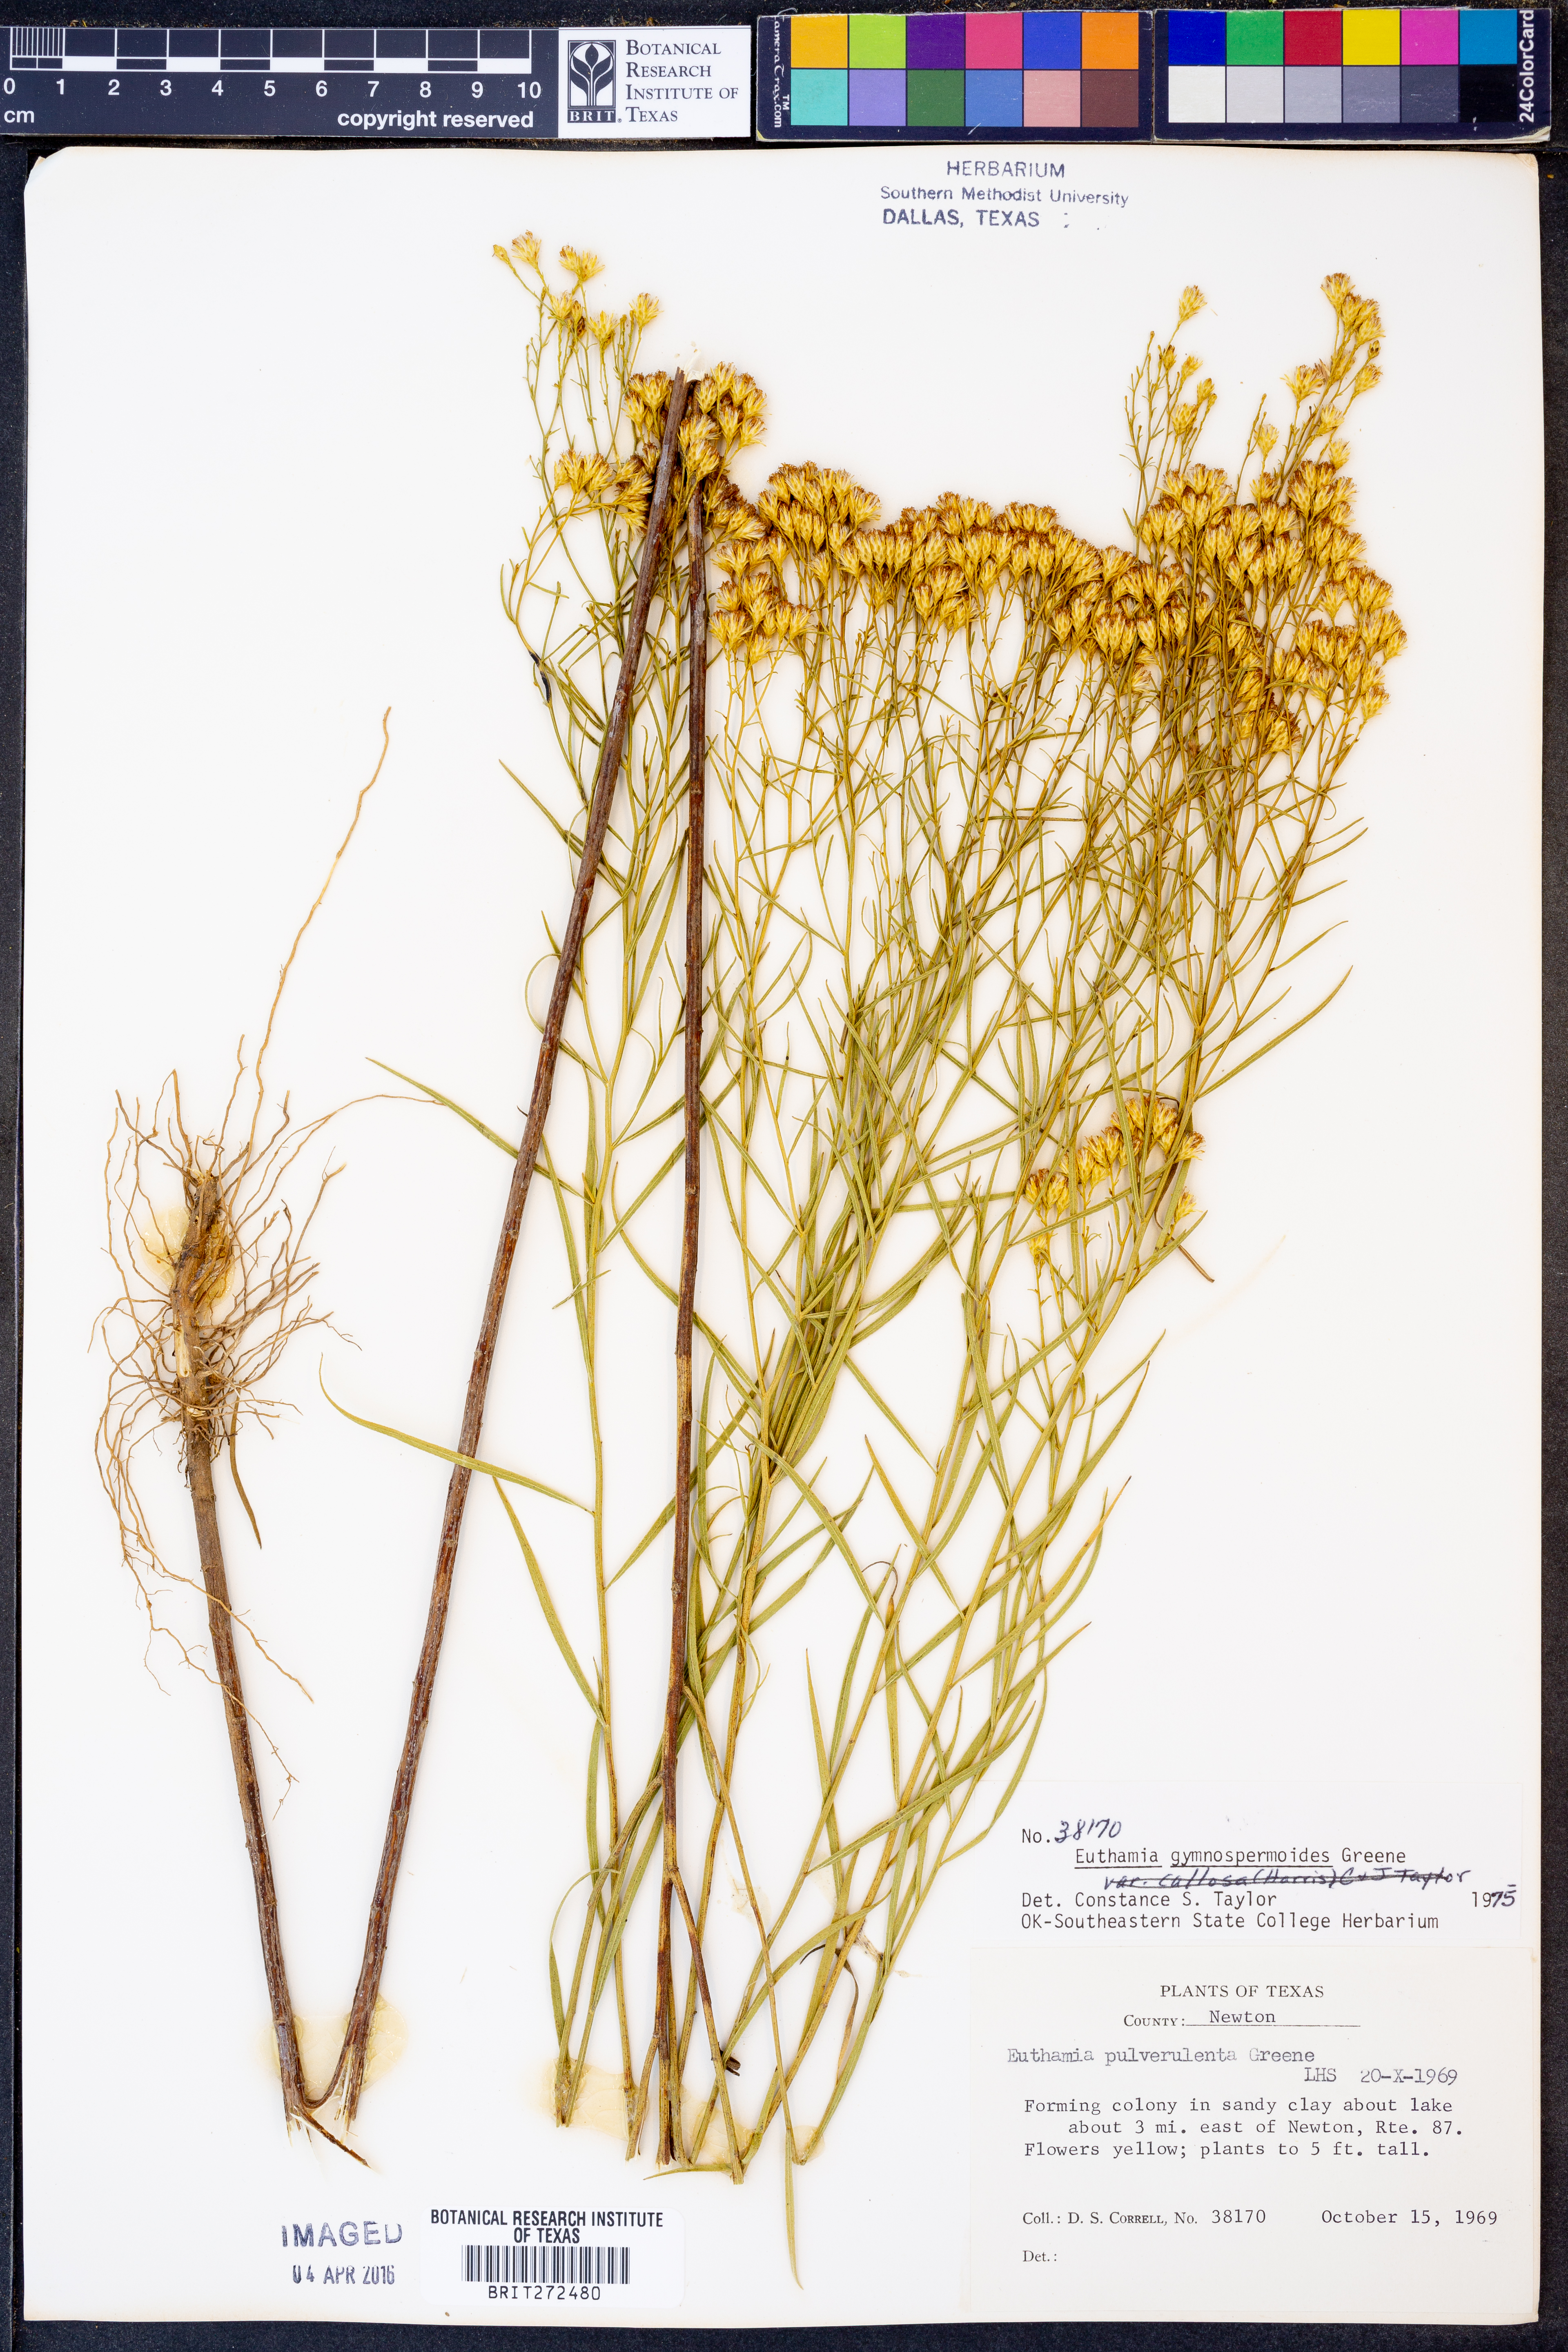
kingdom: Plantae
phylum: Tracheophyta
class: Magnoliopsida
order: Asterales
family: Asteraceae
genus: Euthamia
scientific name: Euthamia gymnospermoides
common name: Great plains goldentop
